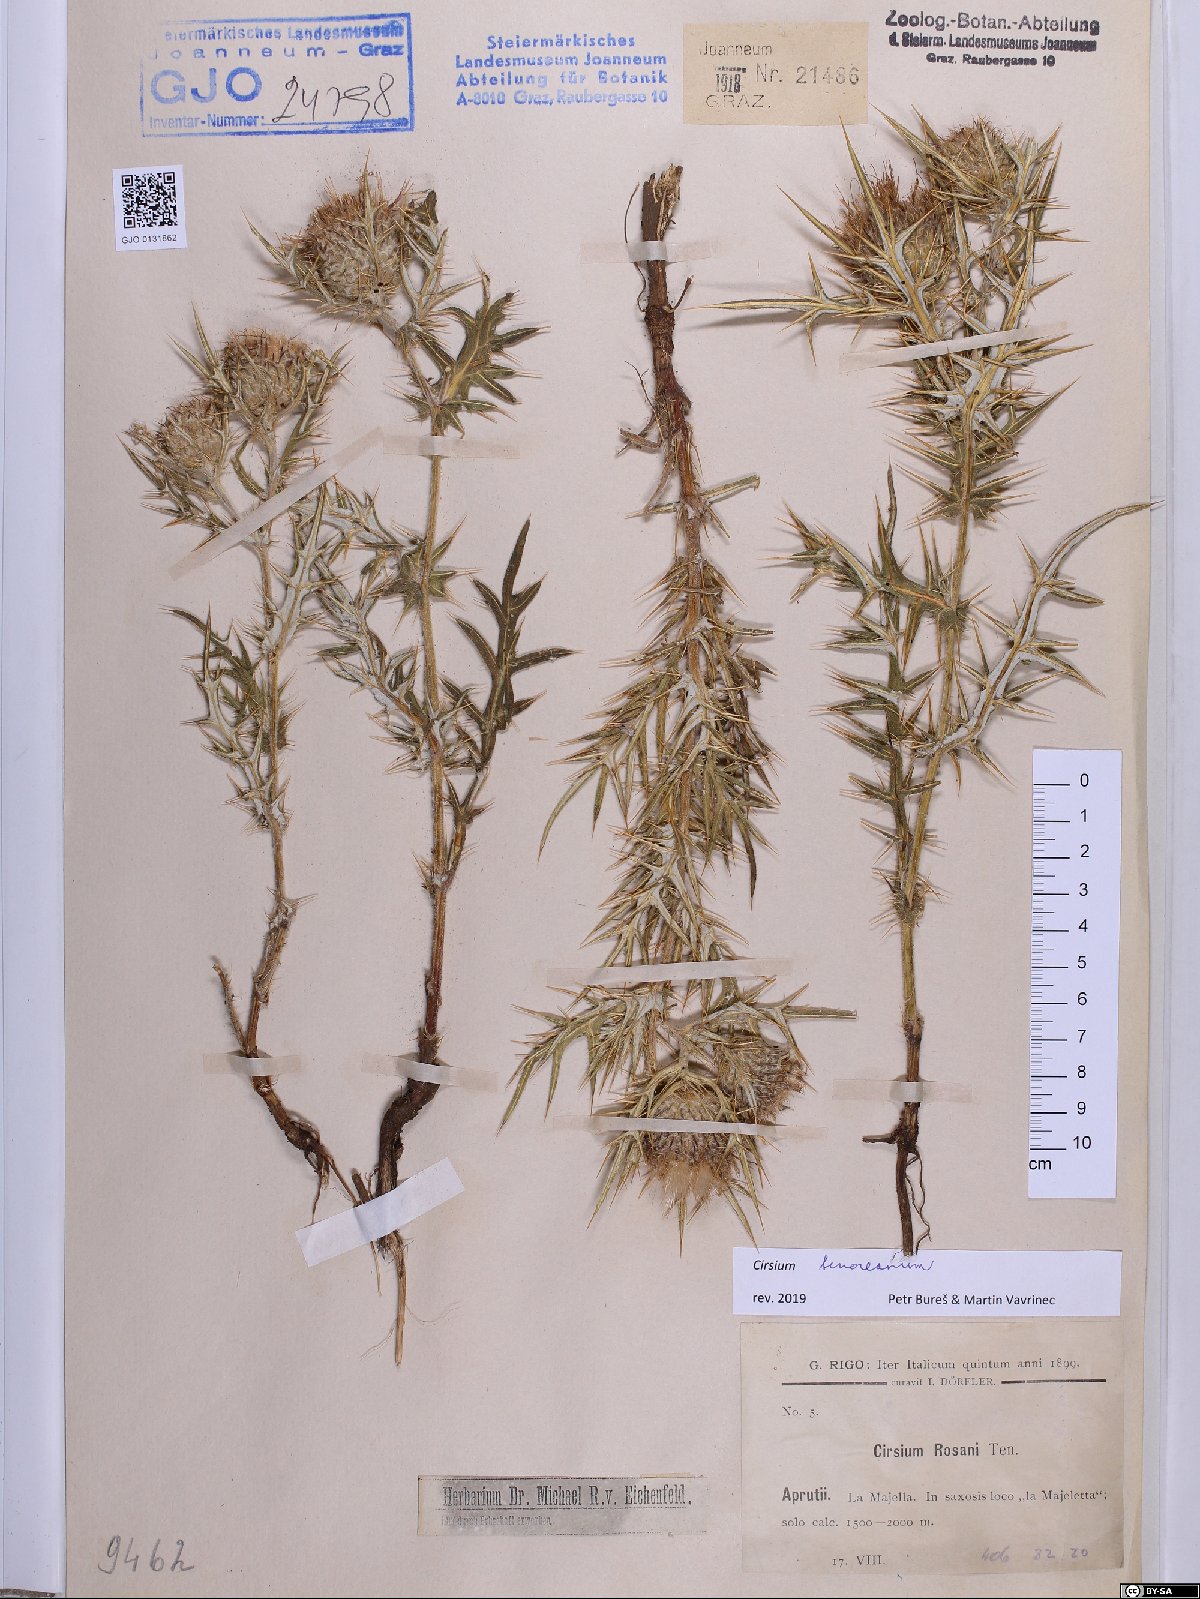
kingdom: Plantae
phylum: Tracheophyta
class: Magnoliopsida
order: Asterales
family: Asteraceae
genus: Lophiolepis
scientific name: Lophiolepis tenoreana
